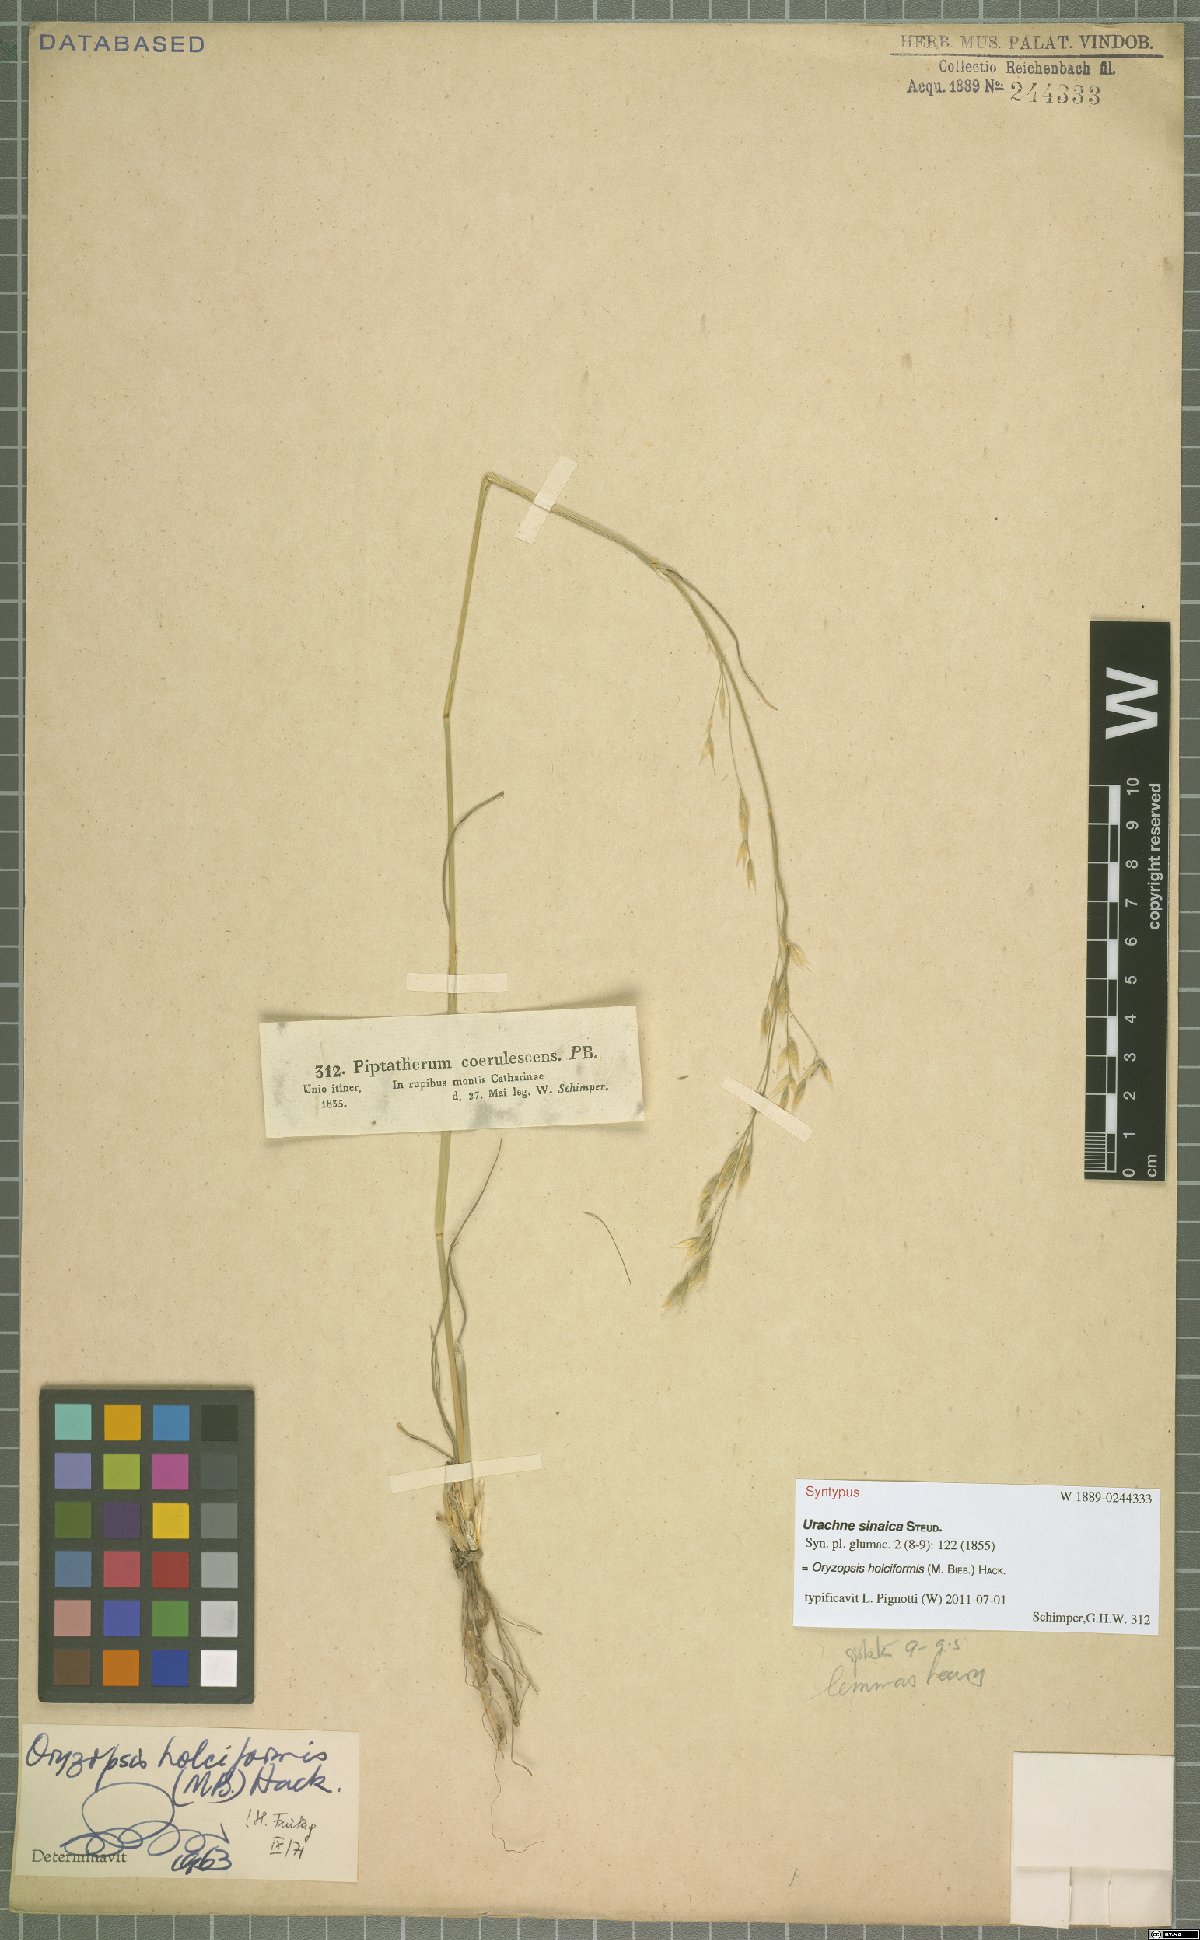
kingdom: Plantae
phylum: Tracheophyta
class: Liliopsida
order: Poales
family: Poaceae
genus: Piptatherum
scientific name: Piptatherum holciforme
